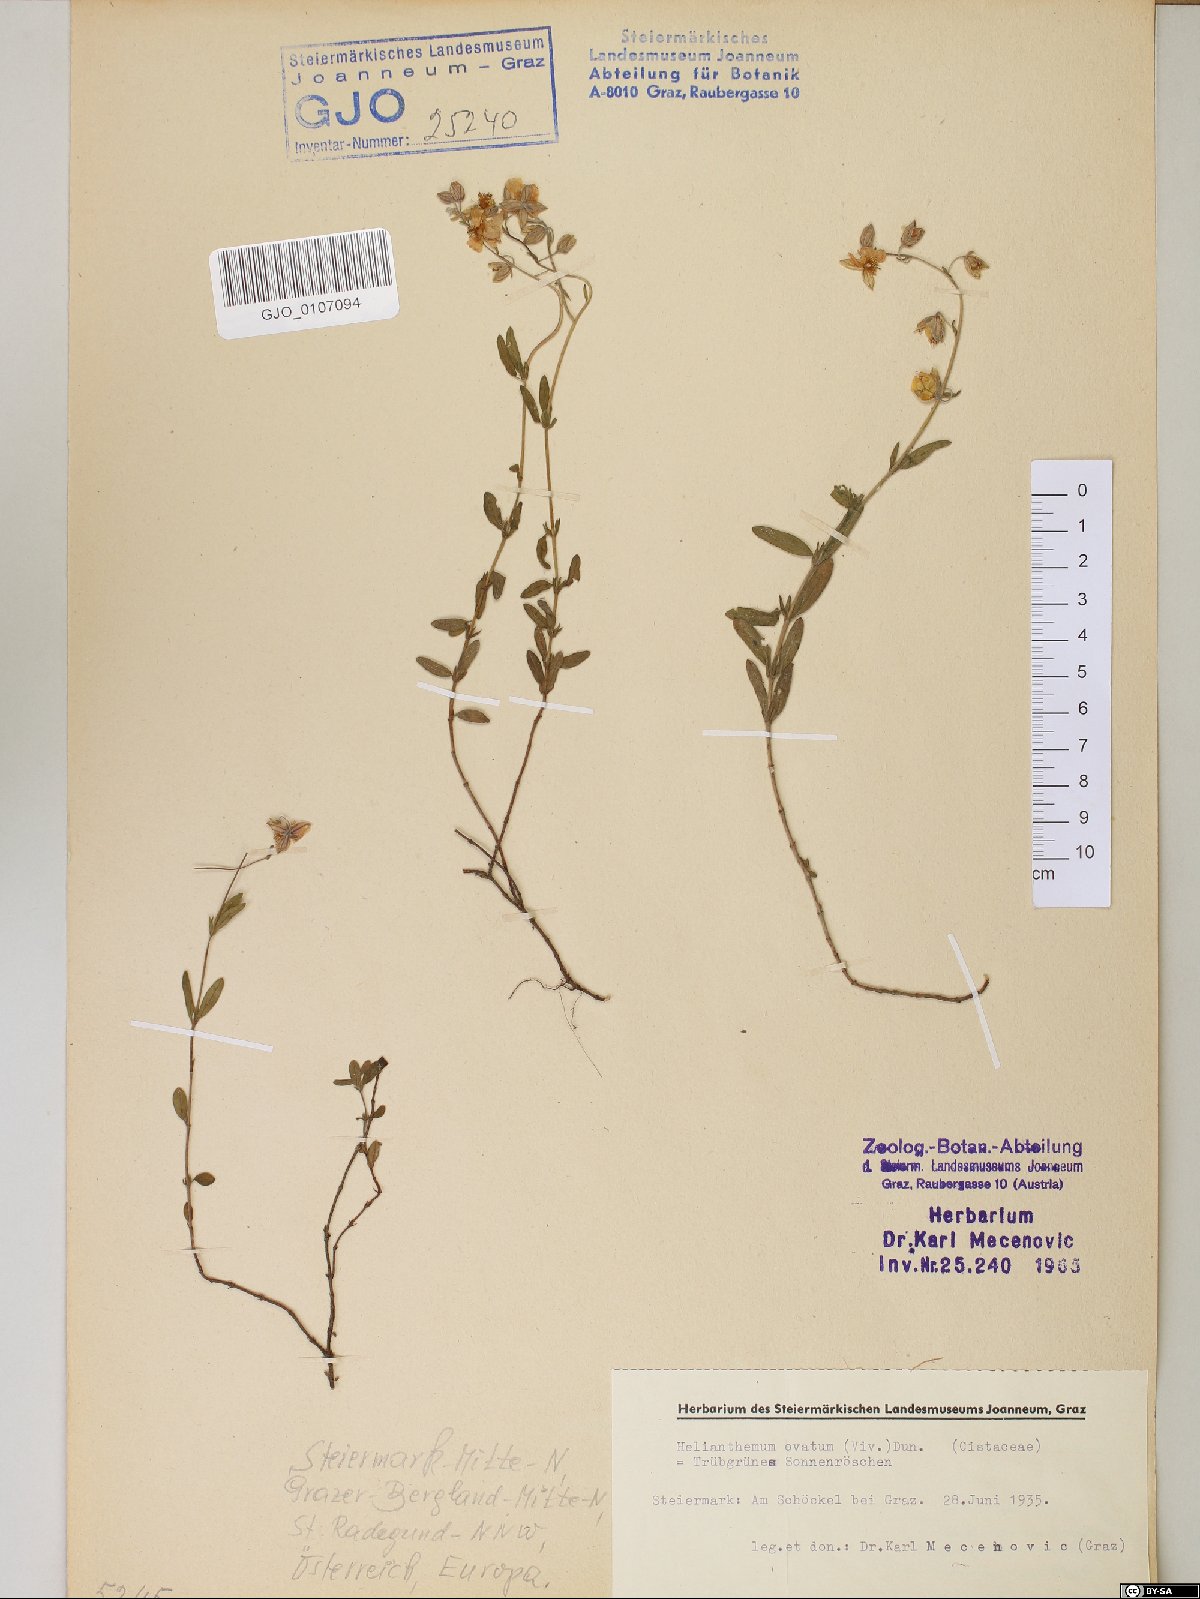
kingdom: Plantae
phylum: Tracheophyta
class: Magnoliopsida
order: Malvales
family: Cistaceae
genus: Helianthemum
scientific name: Helianthemum nummularium
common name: Common rock-rose
